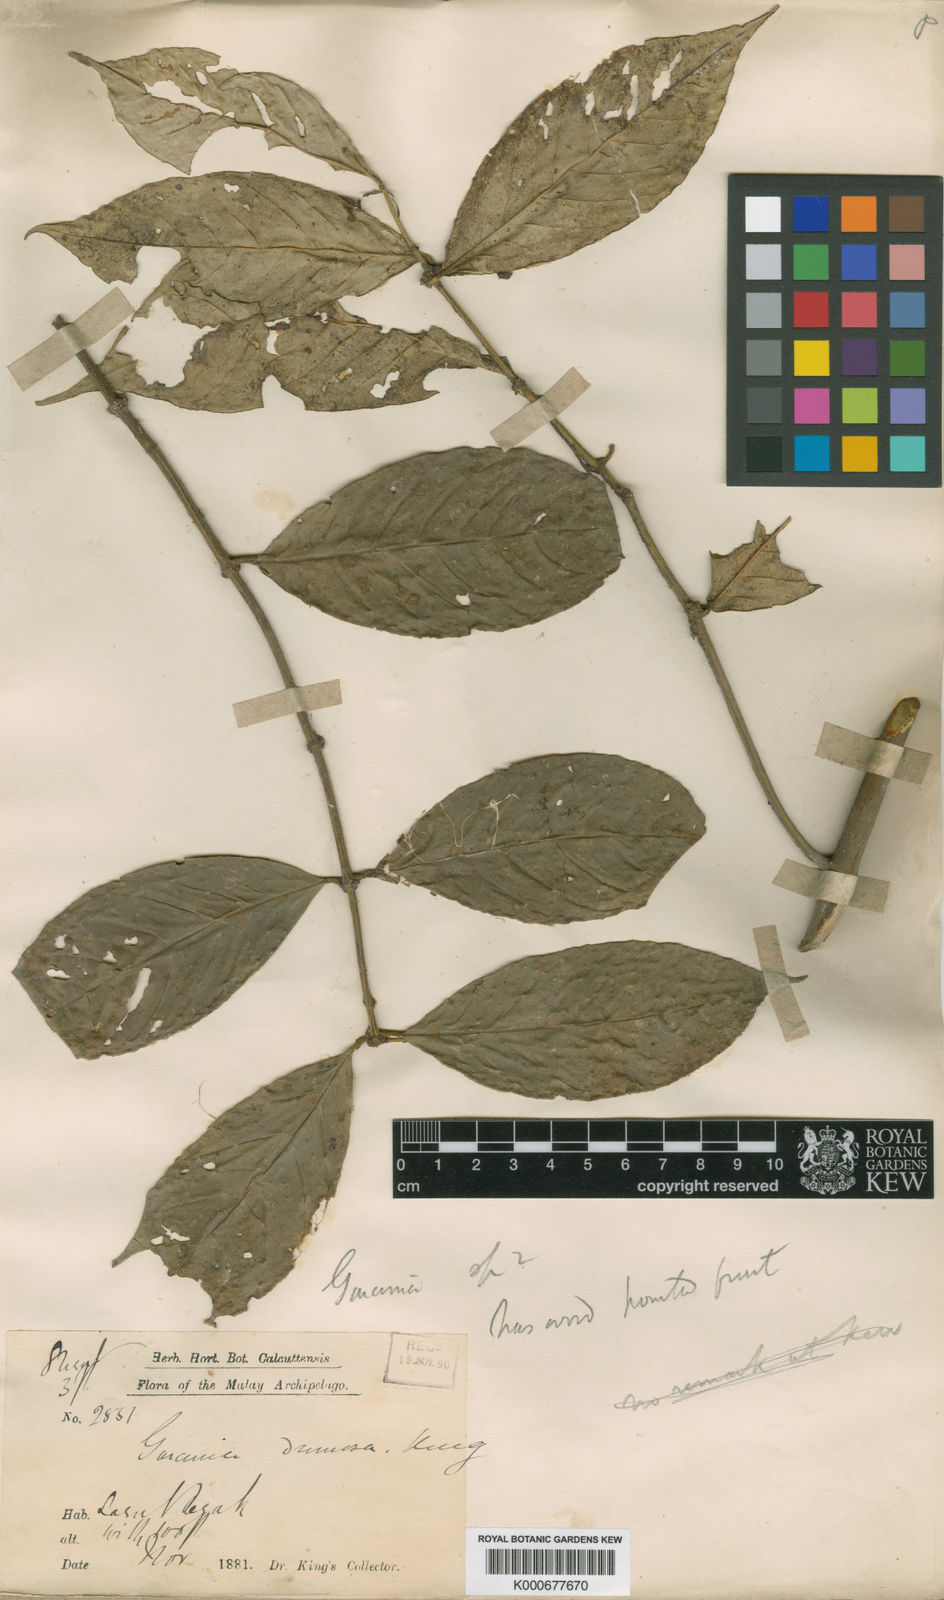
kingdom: Plantae
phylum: Tracheophyta
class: Magnoliopsida
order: Malpighiales
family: Clusiaceae
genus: Garcinia
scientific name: Garcinia dumosa
